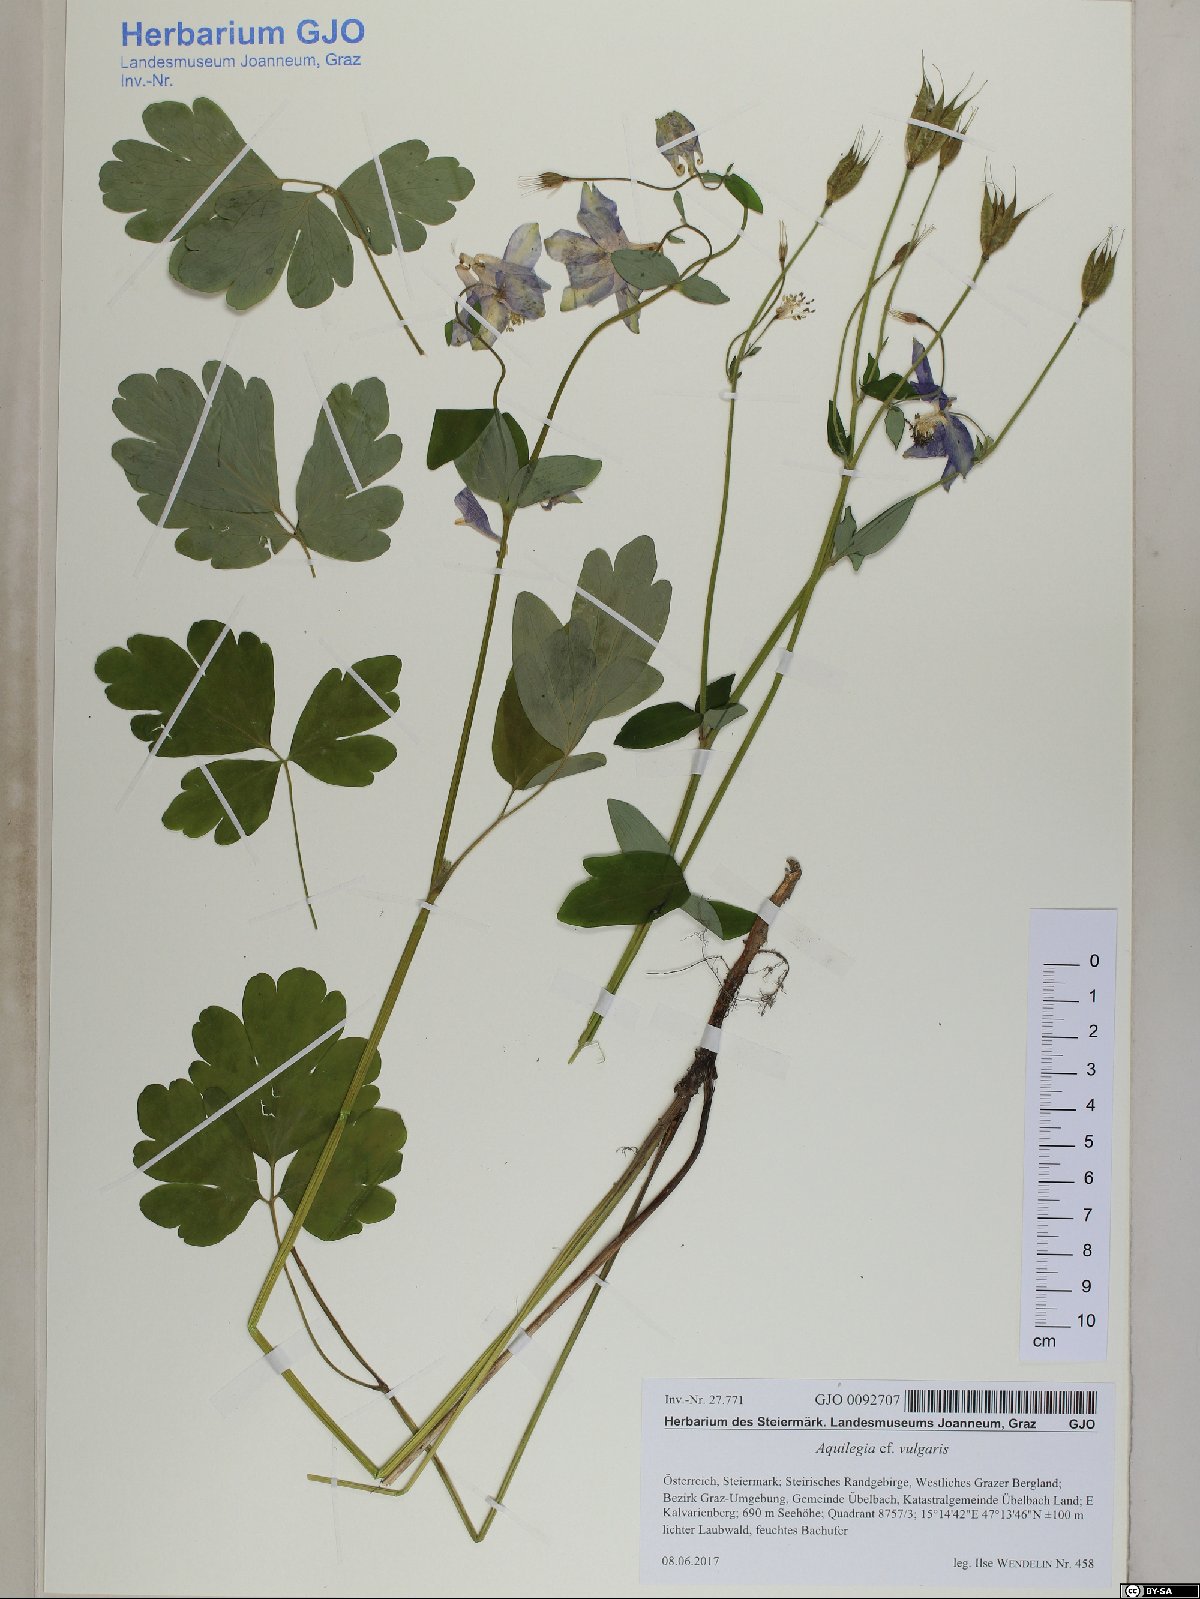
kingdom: Plantae
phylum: Tracheophyta
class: Magnoliopsida
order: Ranunculales
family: Ranunculaceae
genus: Aquilegia
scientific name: Aquilegia vulgaris
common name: Columbine
